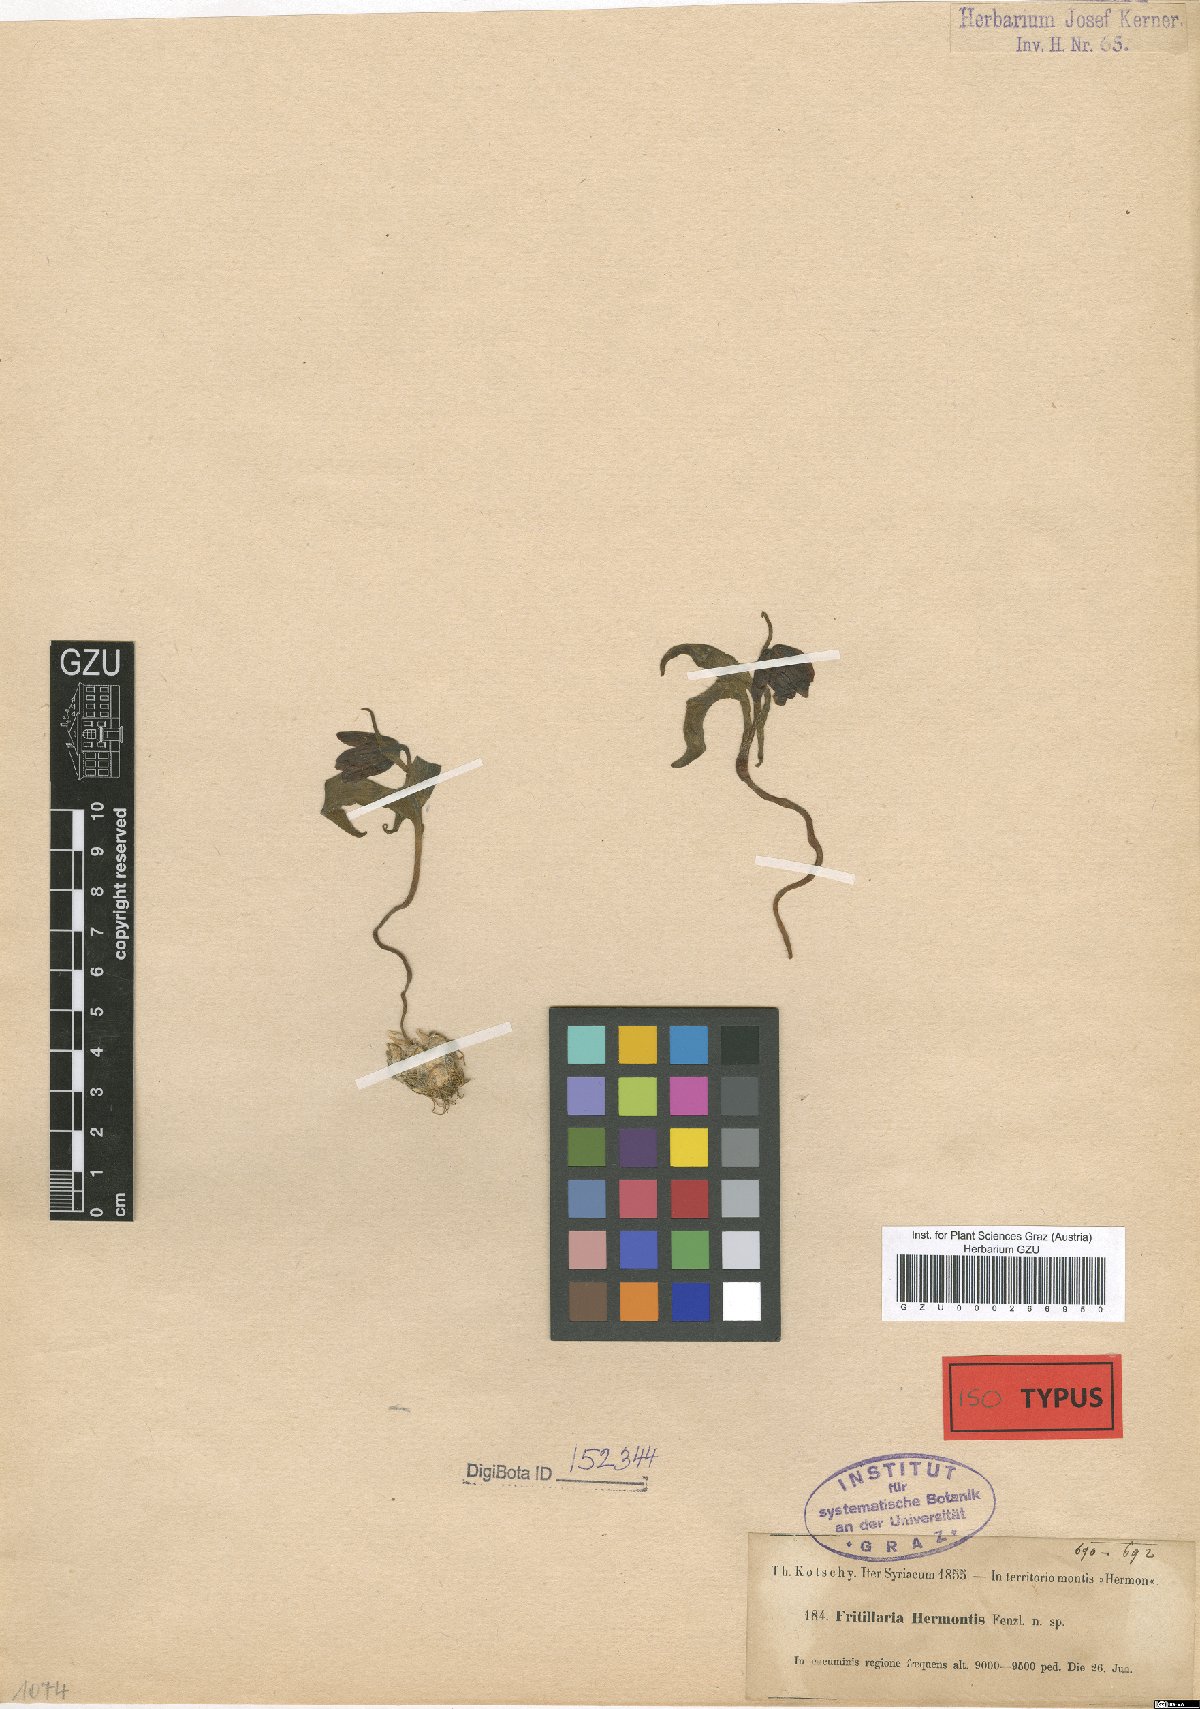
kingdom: Plantae
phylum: Tracheophyta
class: Liliopsida
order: Liliales
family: Liliaceae
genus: Fritillaria
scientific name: Fritillaria hermonis
